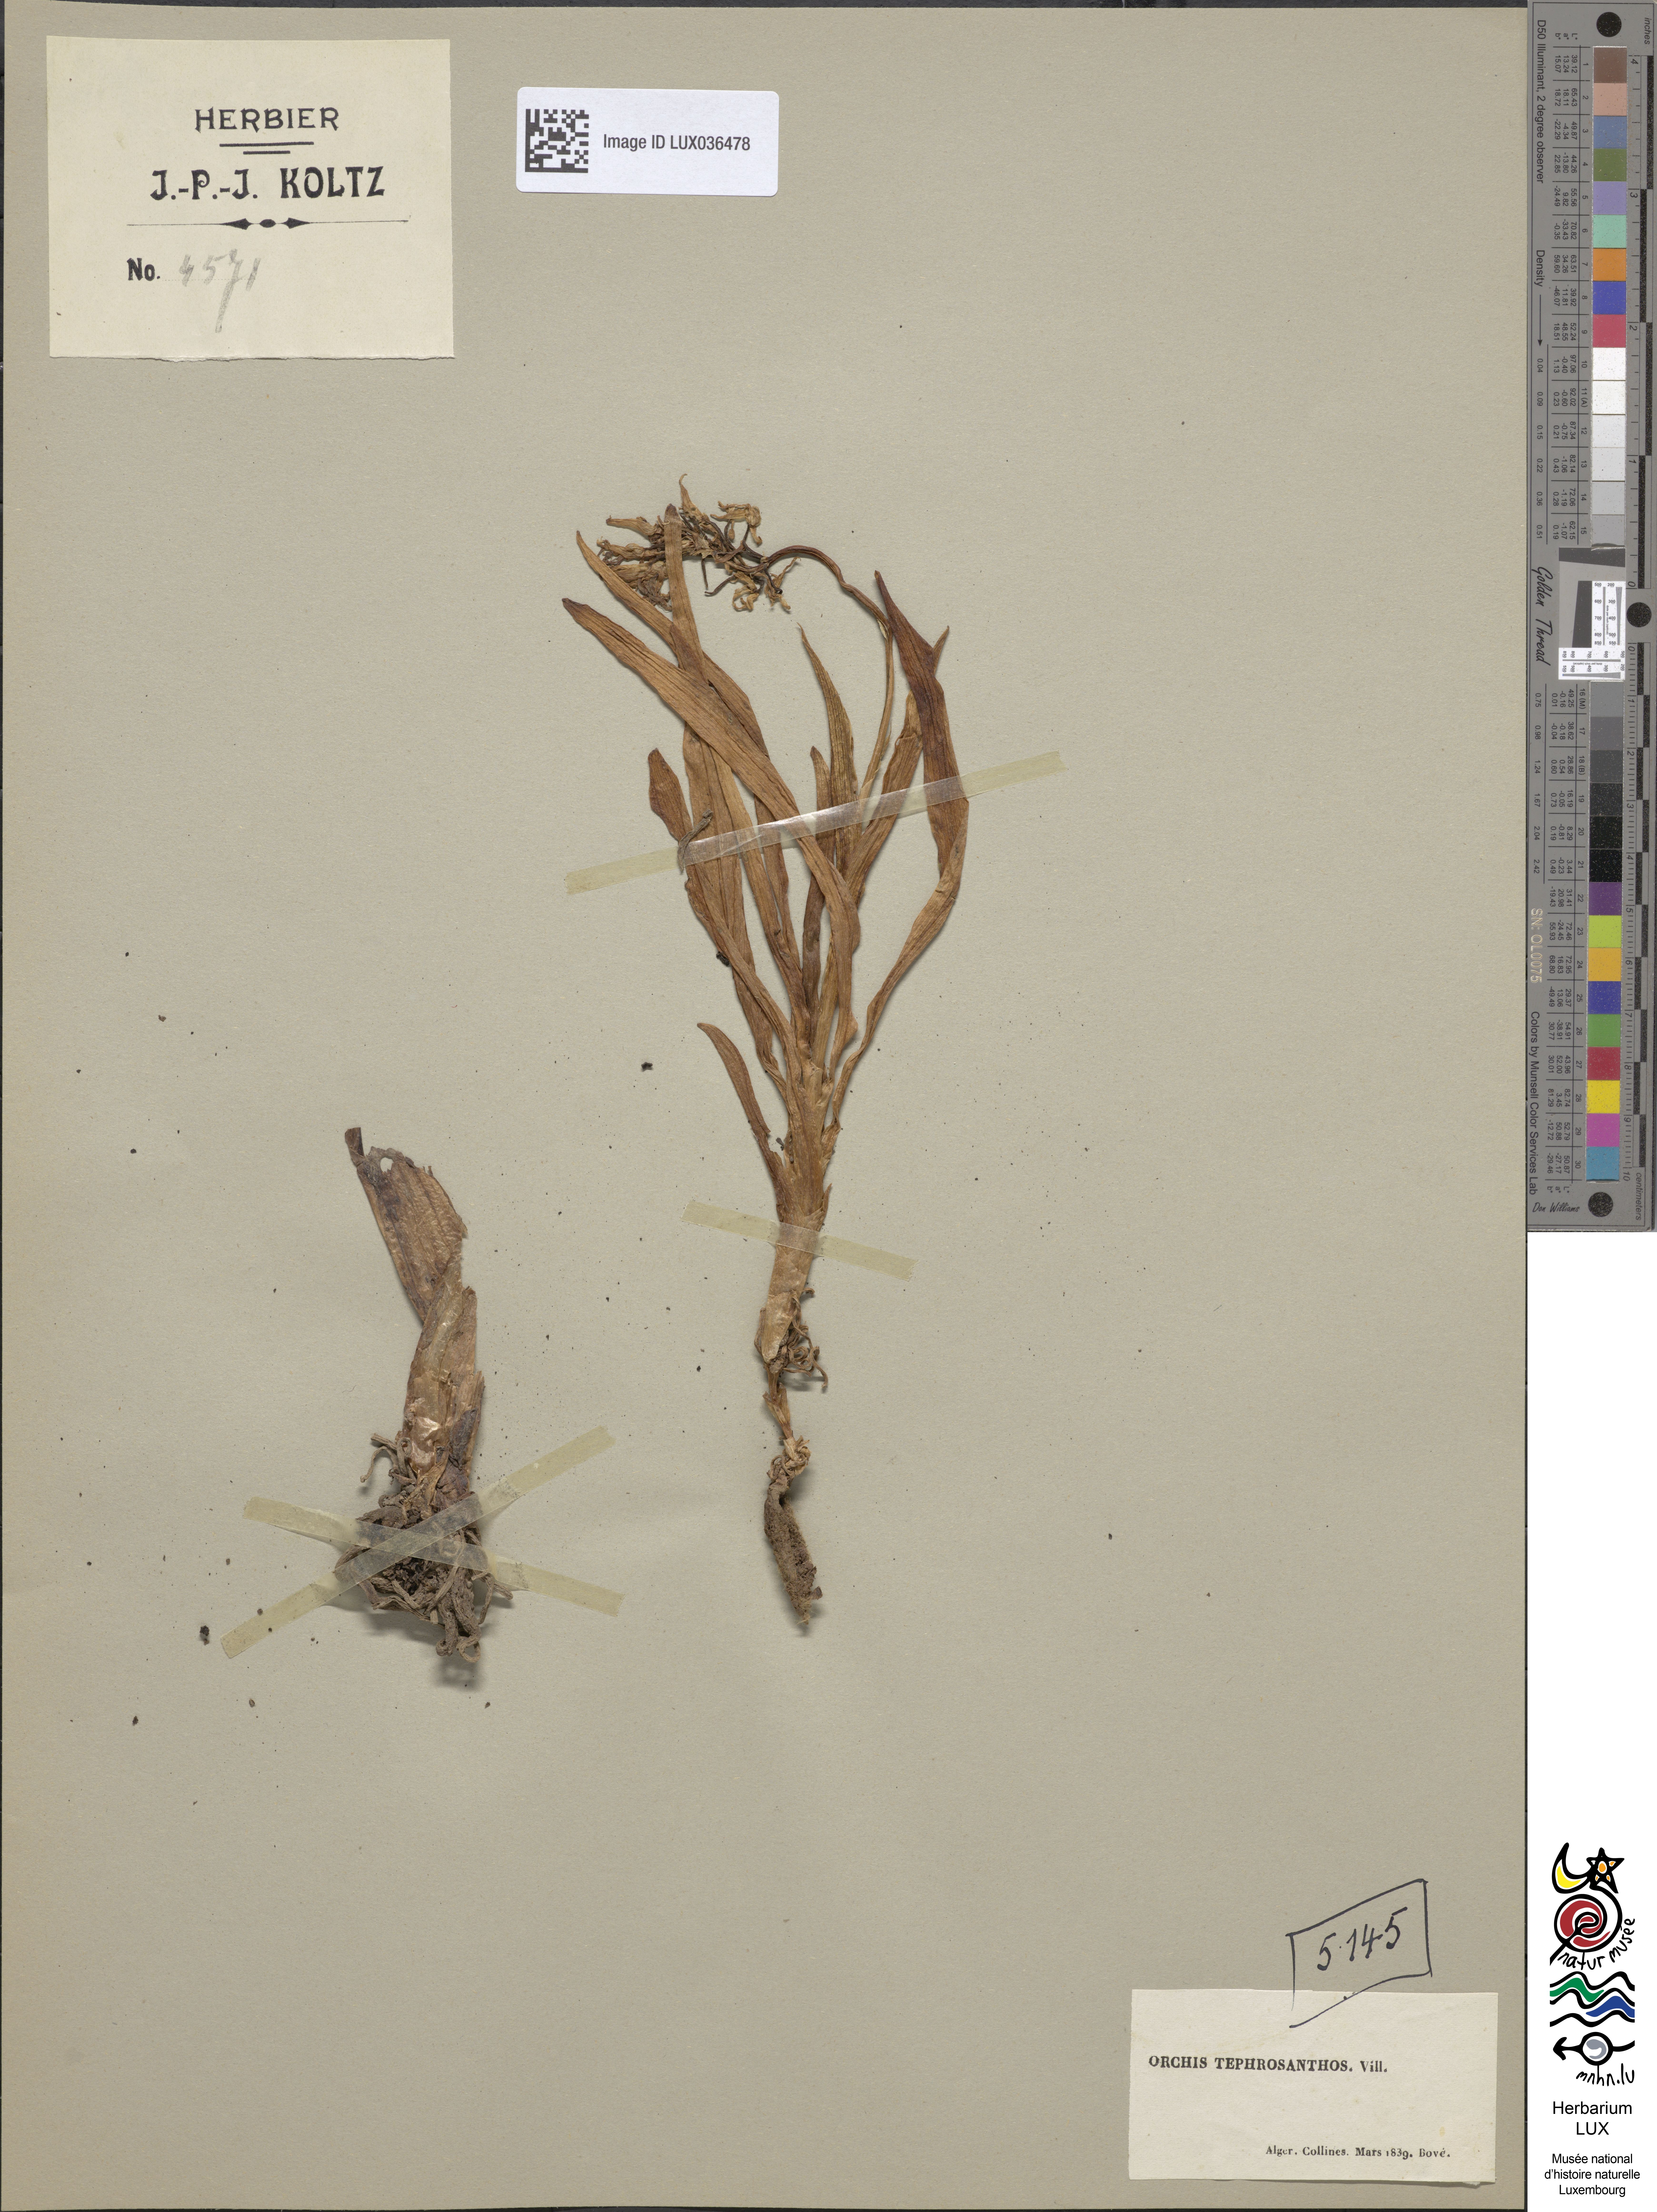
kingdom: Plantae
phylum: Tracheophyta
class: Liliopsida
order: Asparagales
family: Orchidaceae
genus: Orchis
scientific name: Orchis simia
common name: Monkey orchid
